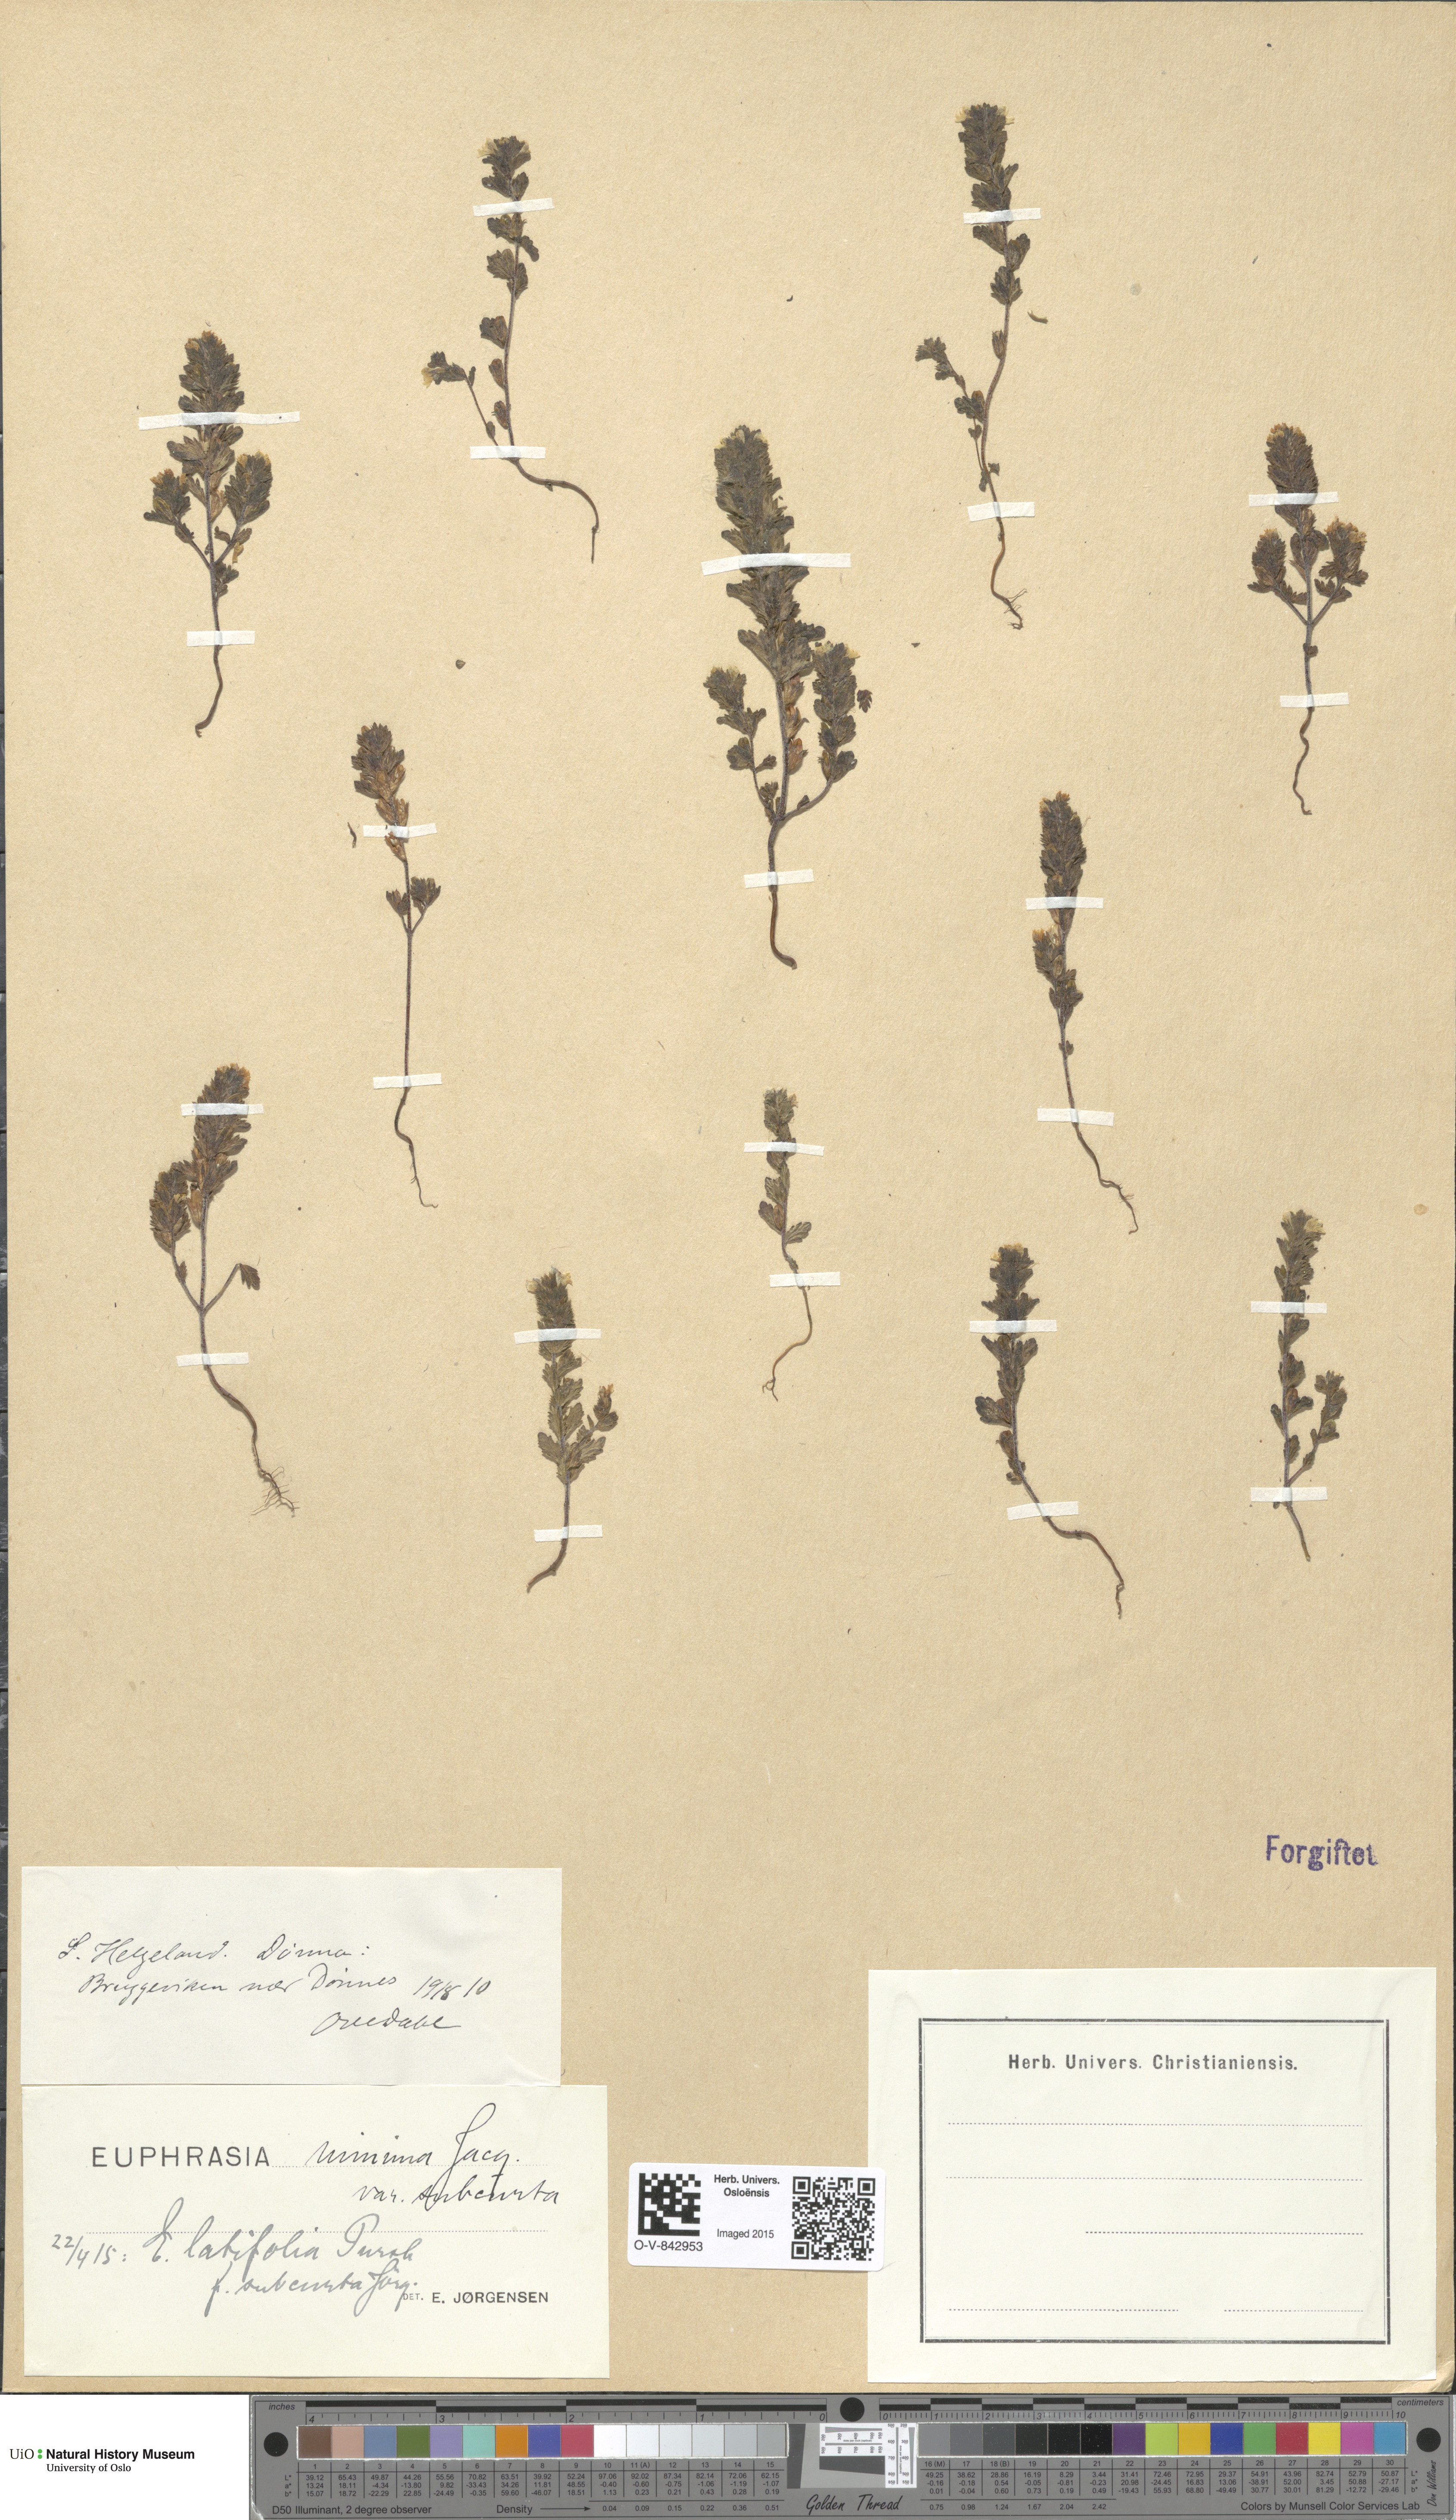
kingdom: Plantae
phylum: Tracheophyta
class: Magnoliopsida
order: Lamiales
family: Orobanchaceae
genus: Euphrasia
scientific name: Euphrasia wettsteinii
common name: Wettstein's eyebright
